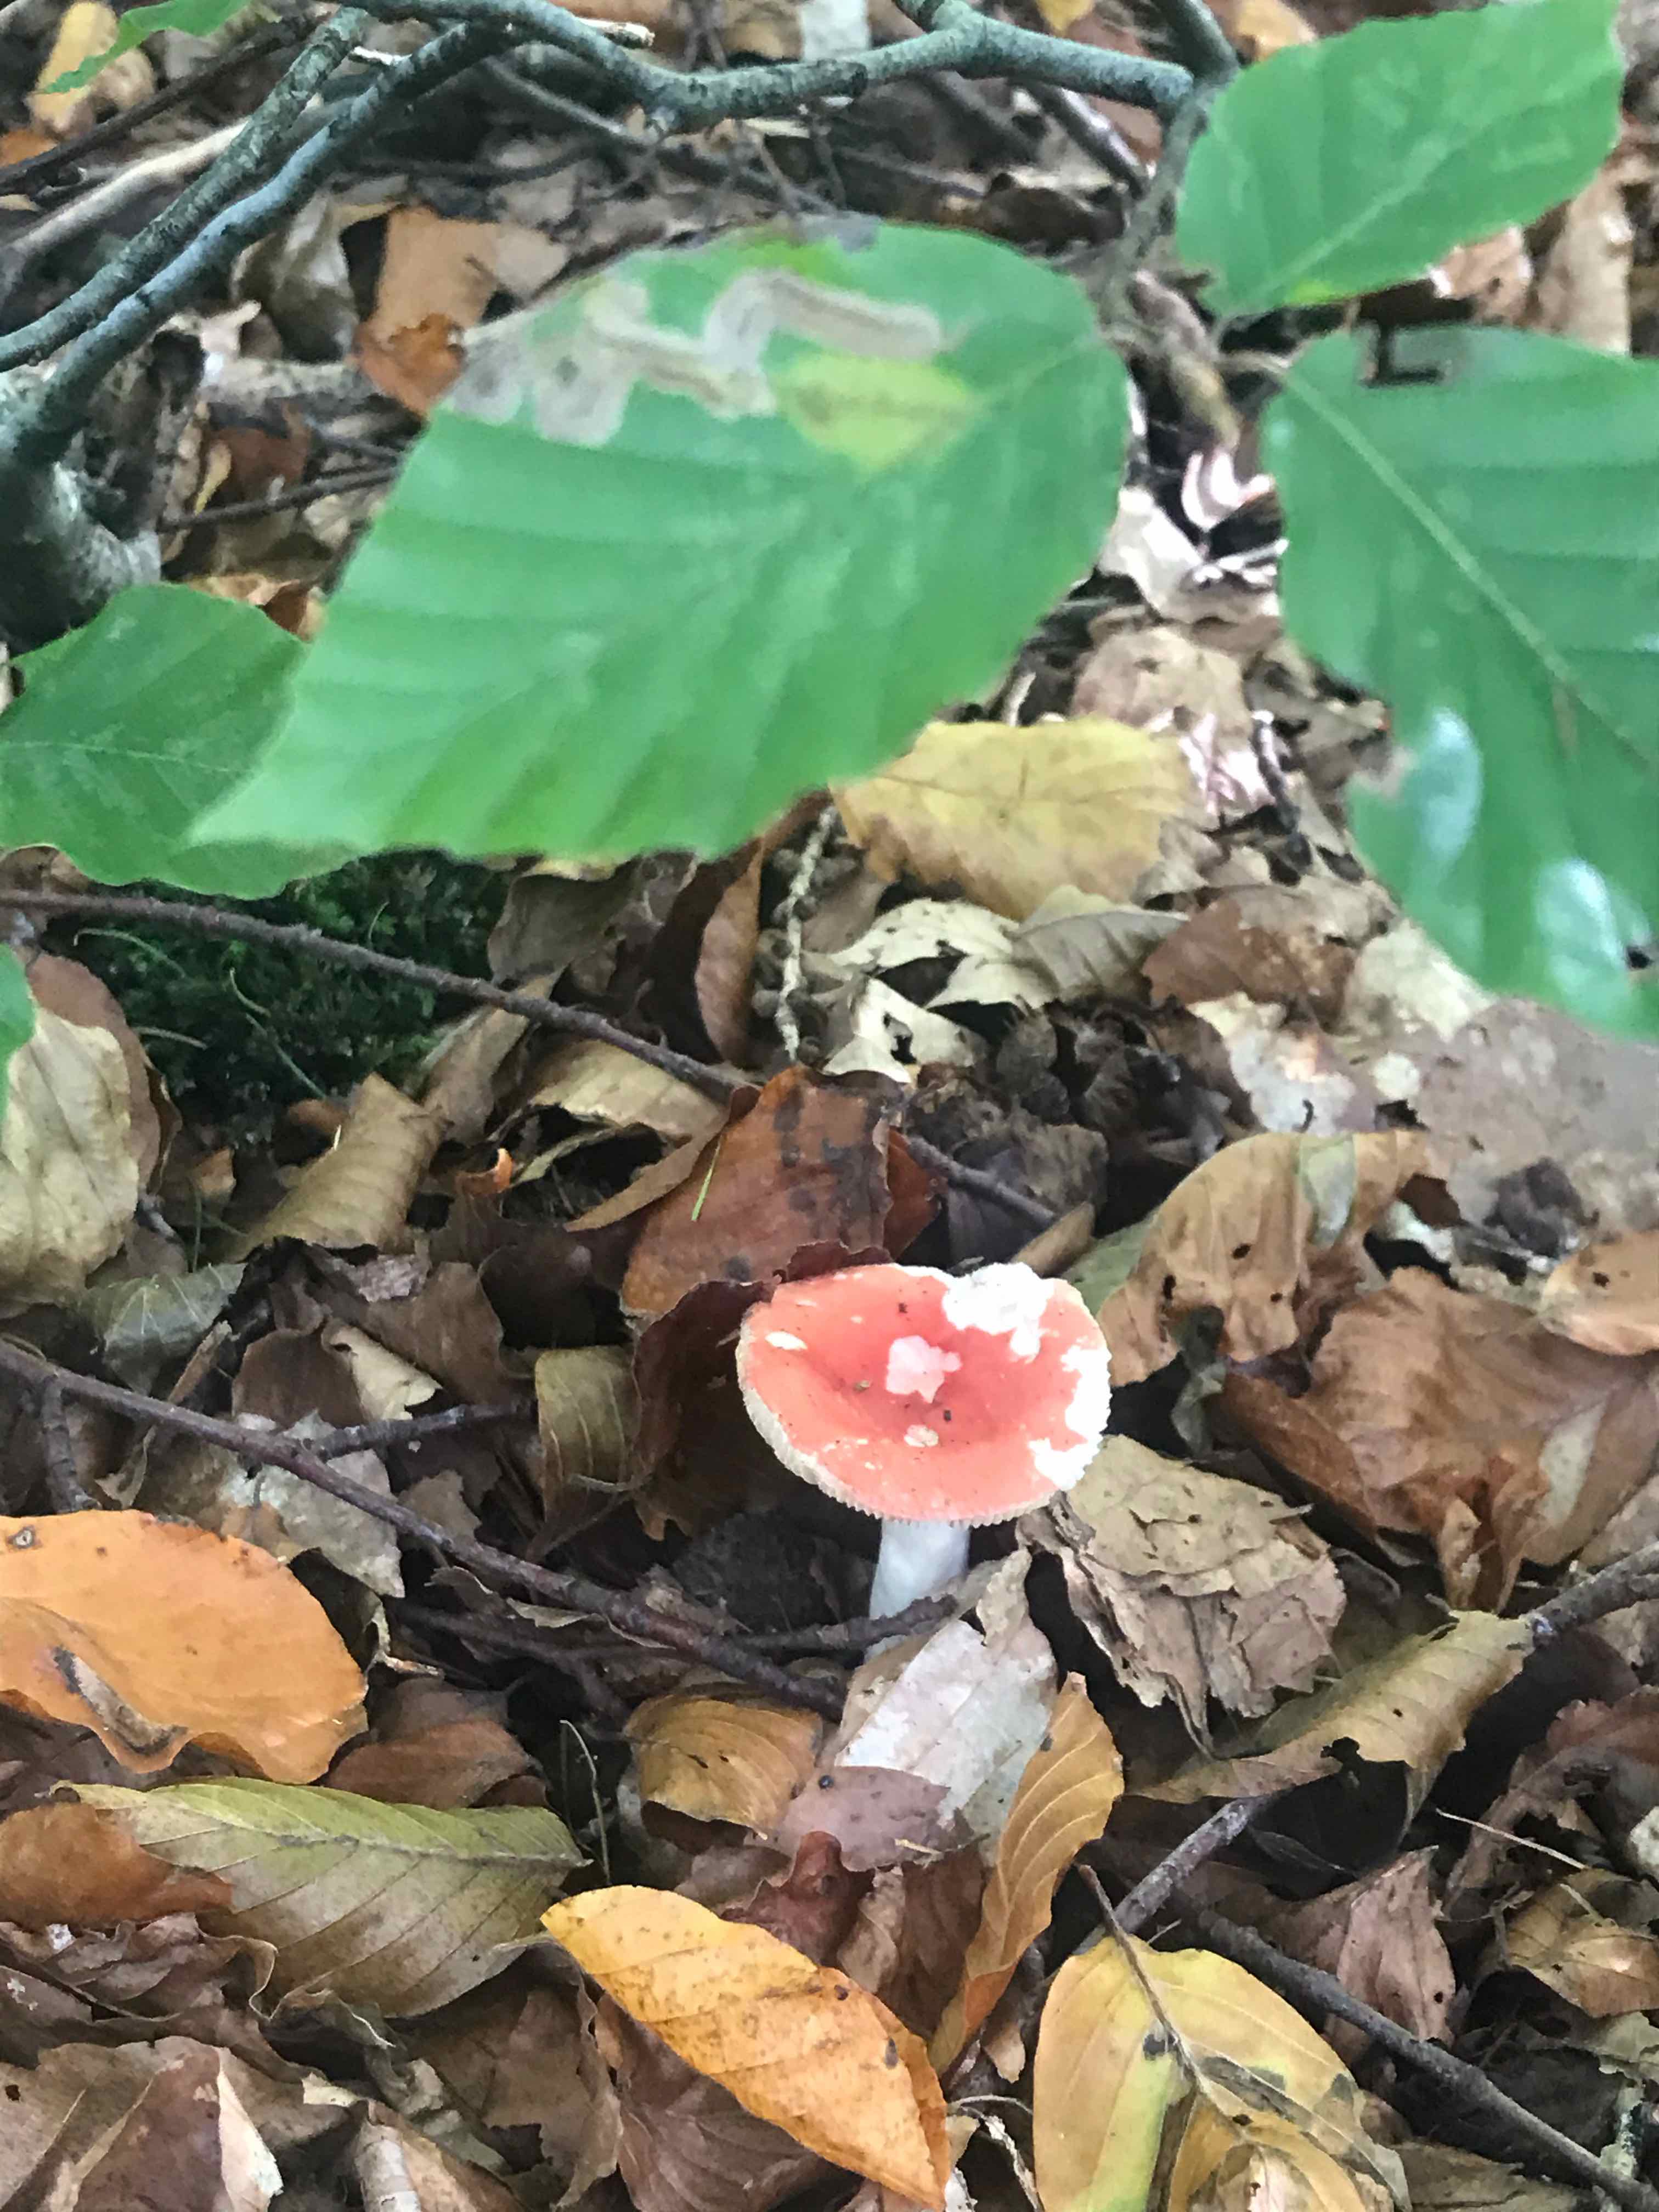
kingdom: Fungi
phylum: Basidiomycota
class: Agaricomycetes
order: Russulales
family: Russulaceae
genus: Russula
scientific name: Russula
